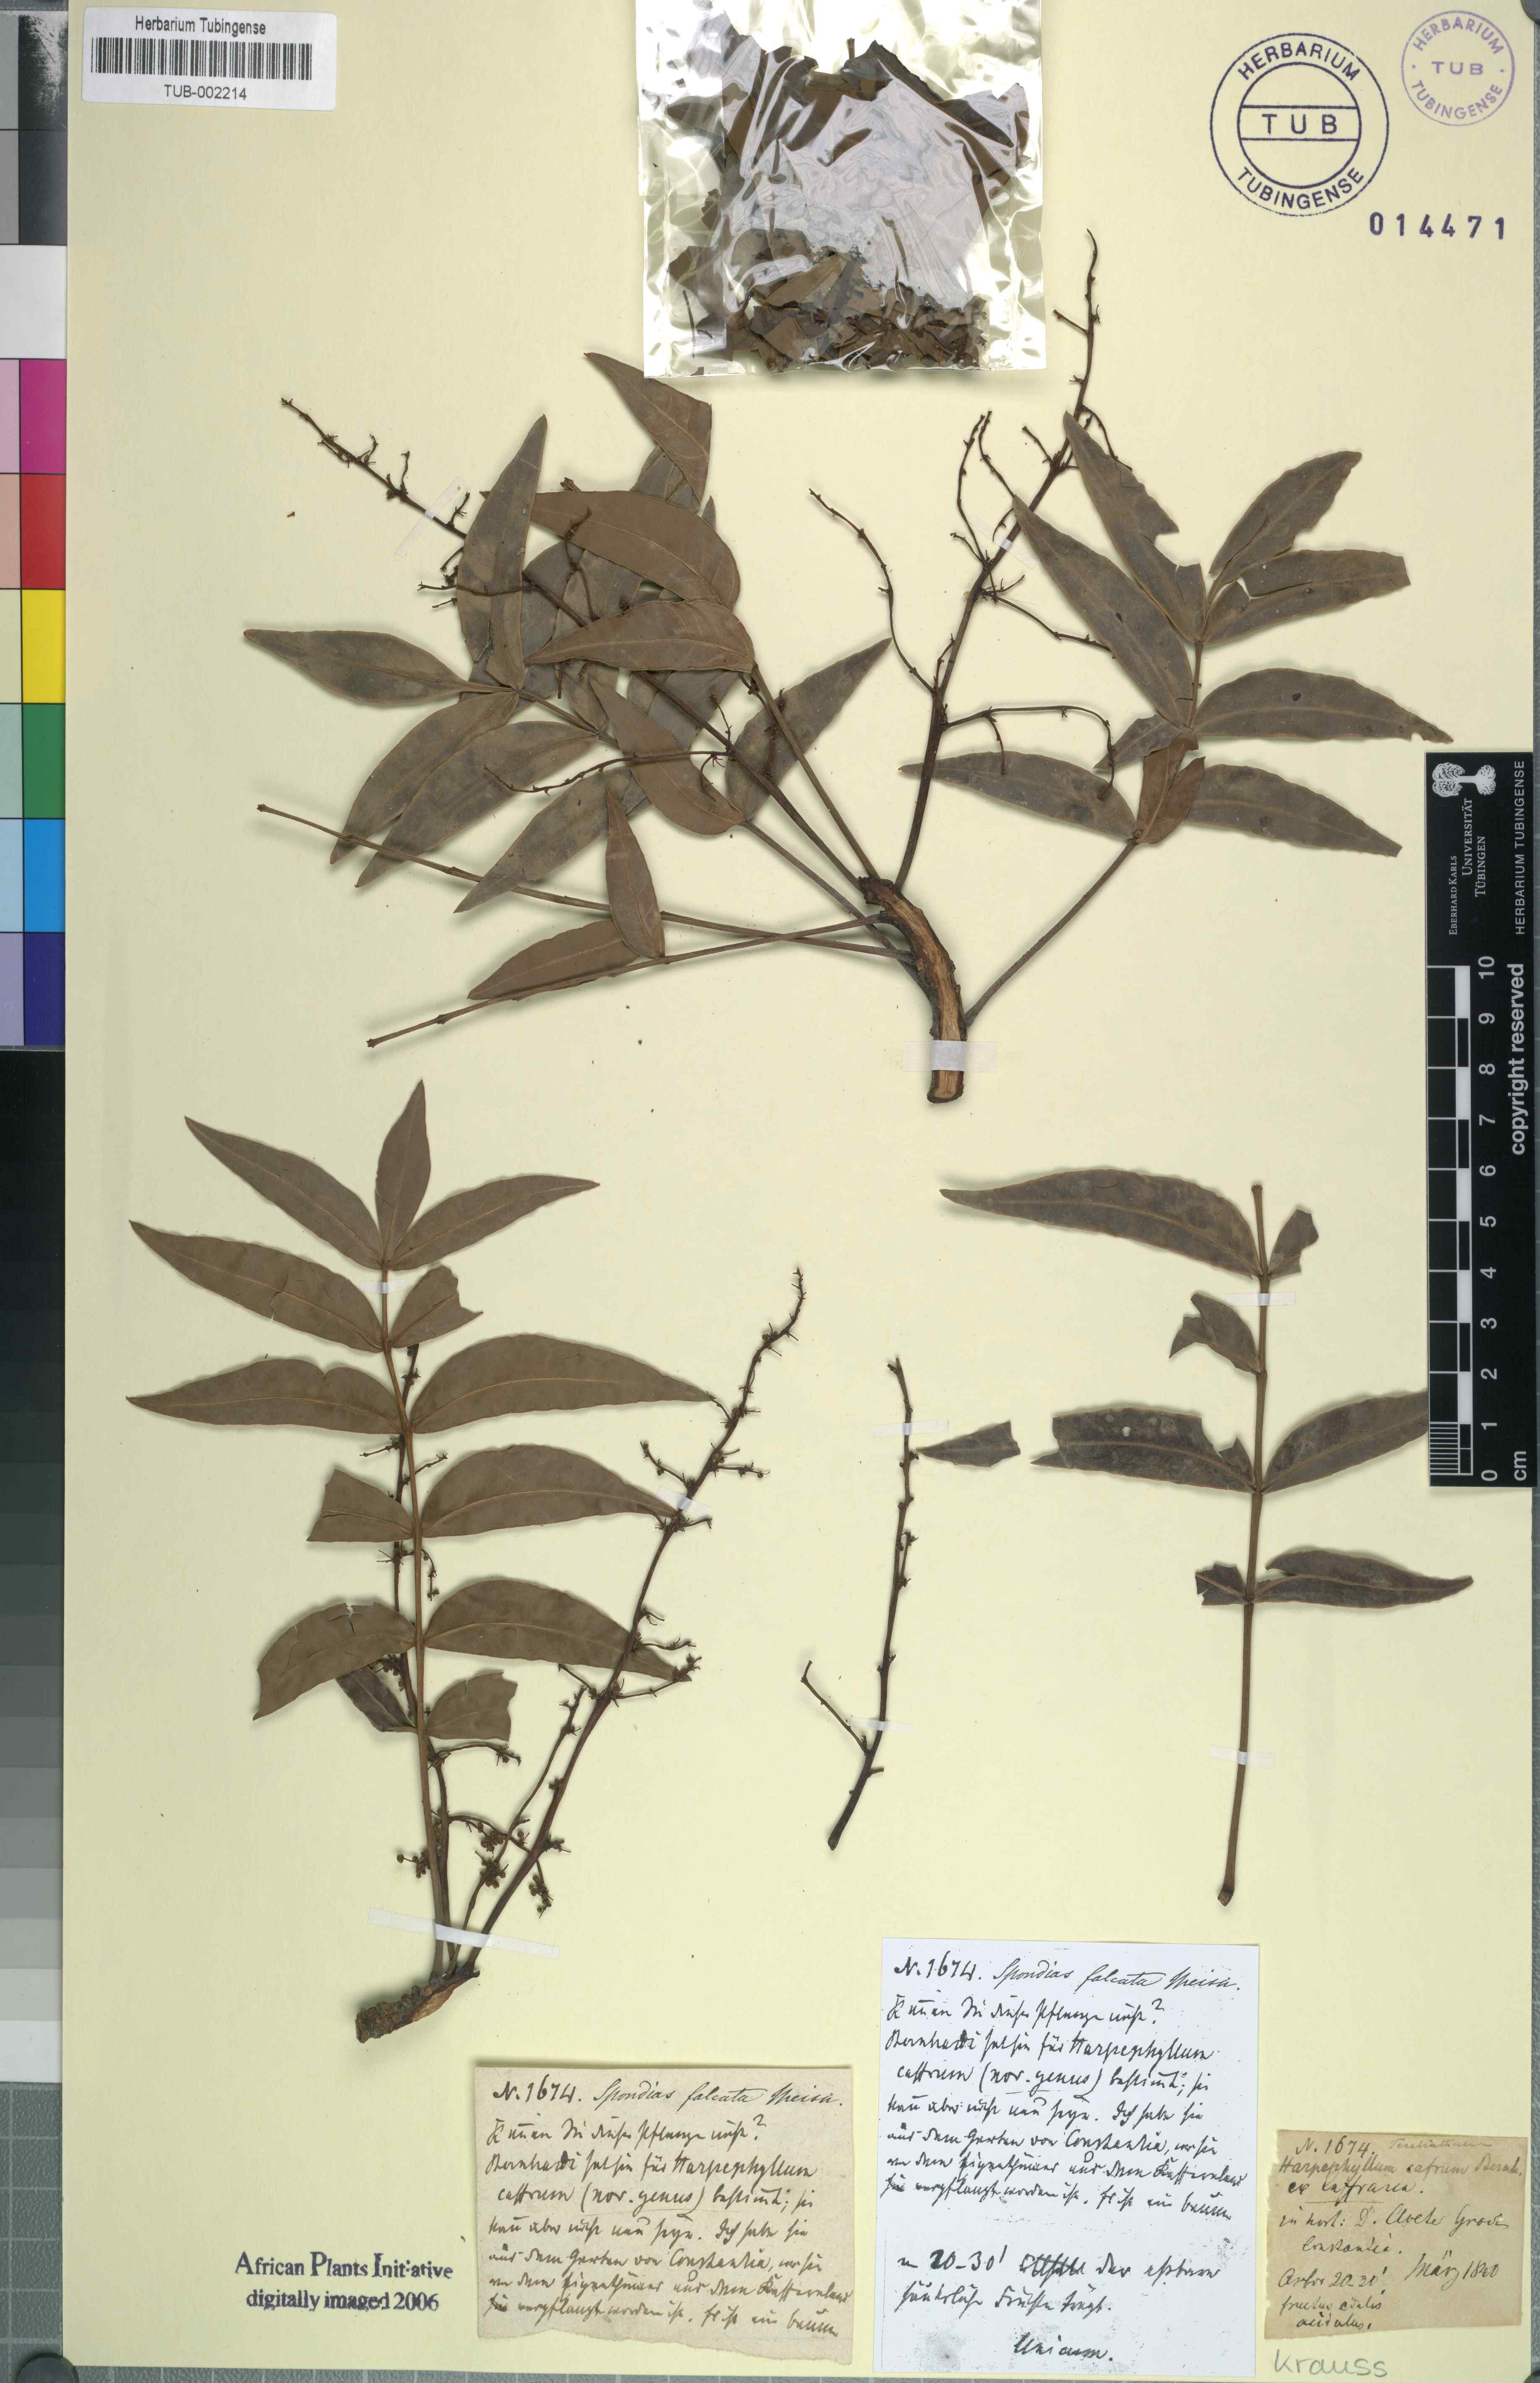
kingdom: Plantae
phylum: Tracheophyta
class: Magnoliopsida
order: Sapindales
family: Anacardiaceae
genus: Harpephyllum
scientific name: Harpephyllum caffrum
